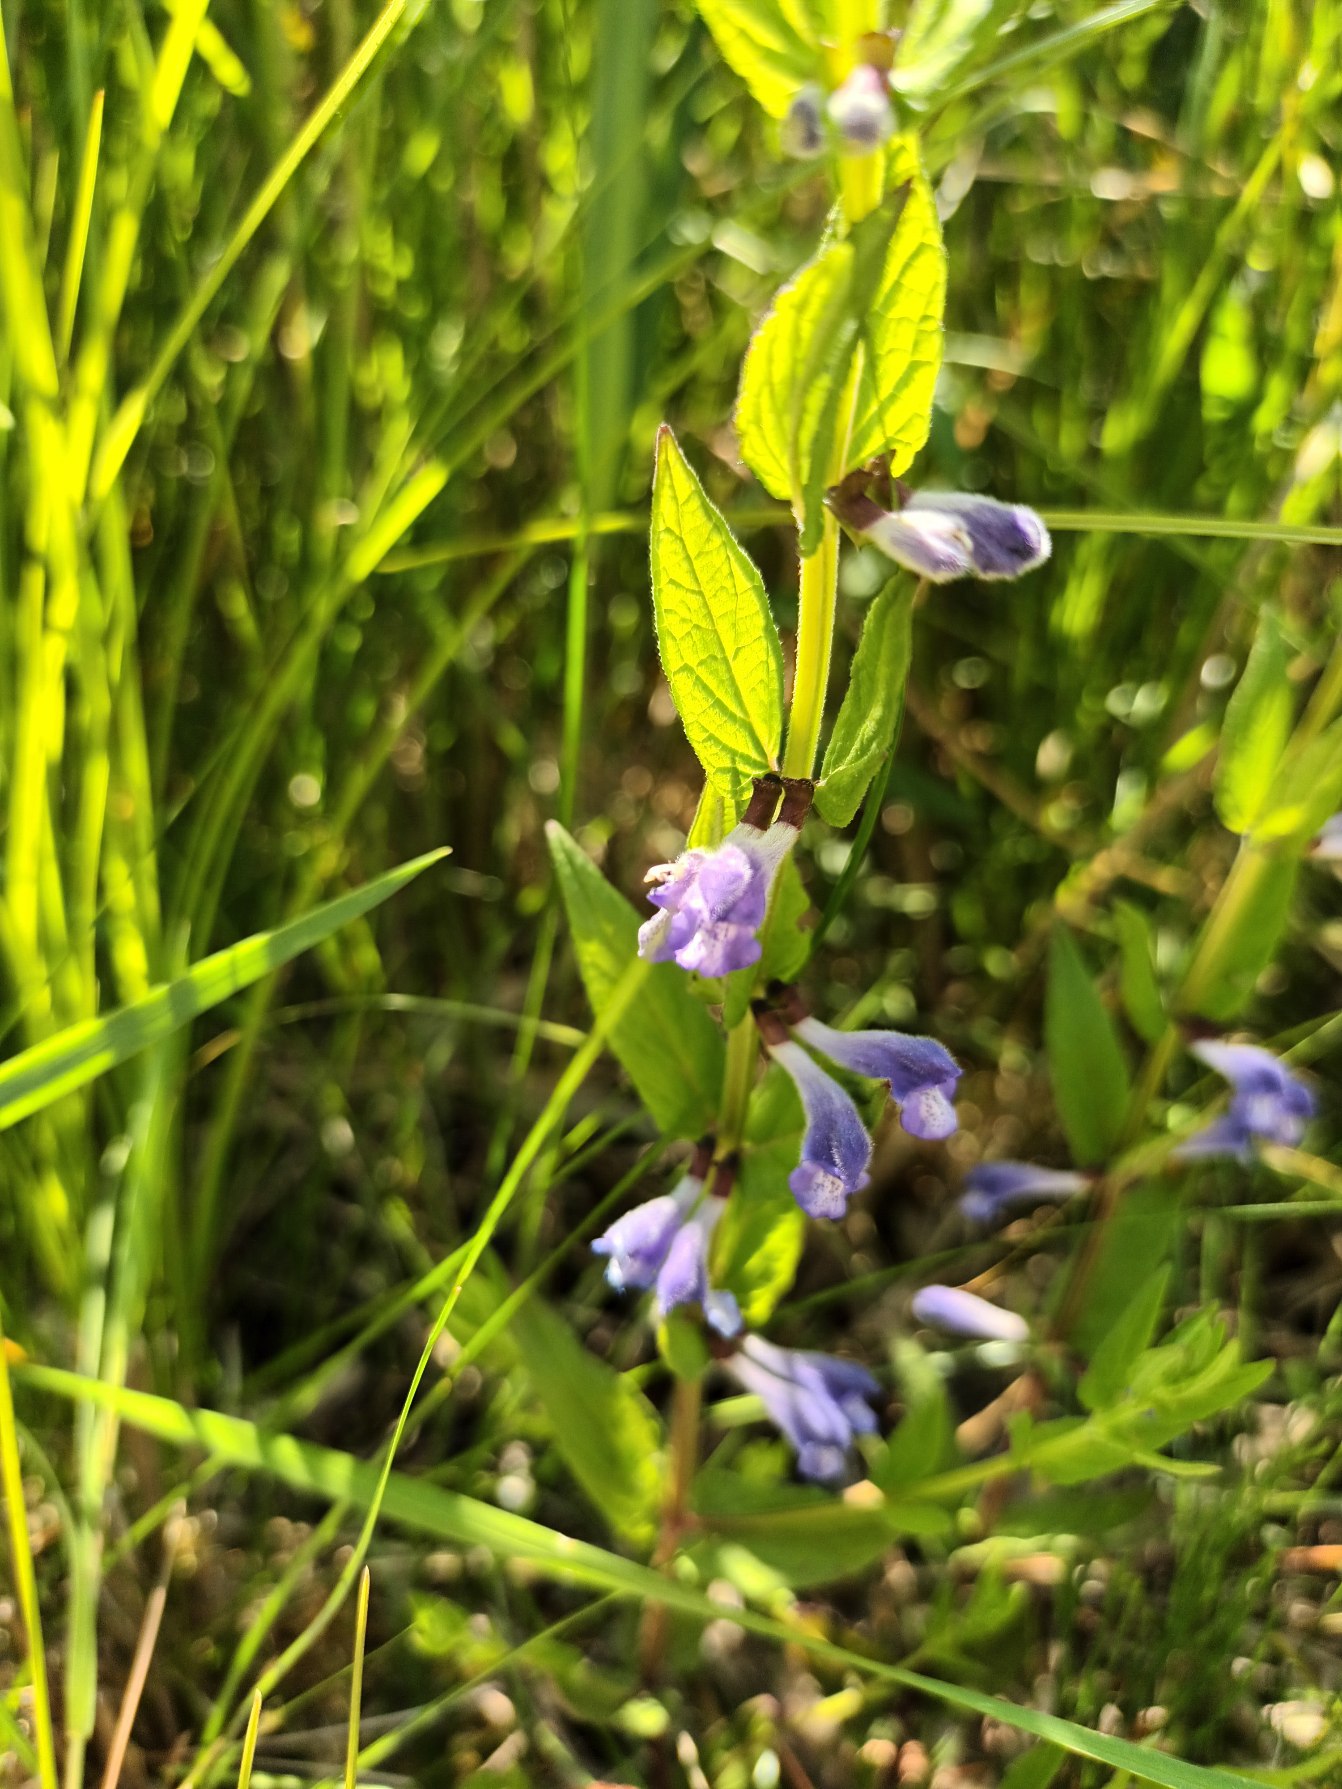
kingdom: Plantae
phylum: Tracheophyta
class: Magnoliopsida
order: Lamiales
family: Lamiaceae
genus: Scutellaria
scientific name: Scutellaria galericulata
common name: Almindelig skjolddrager
